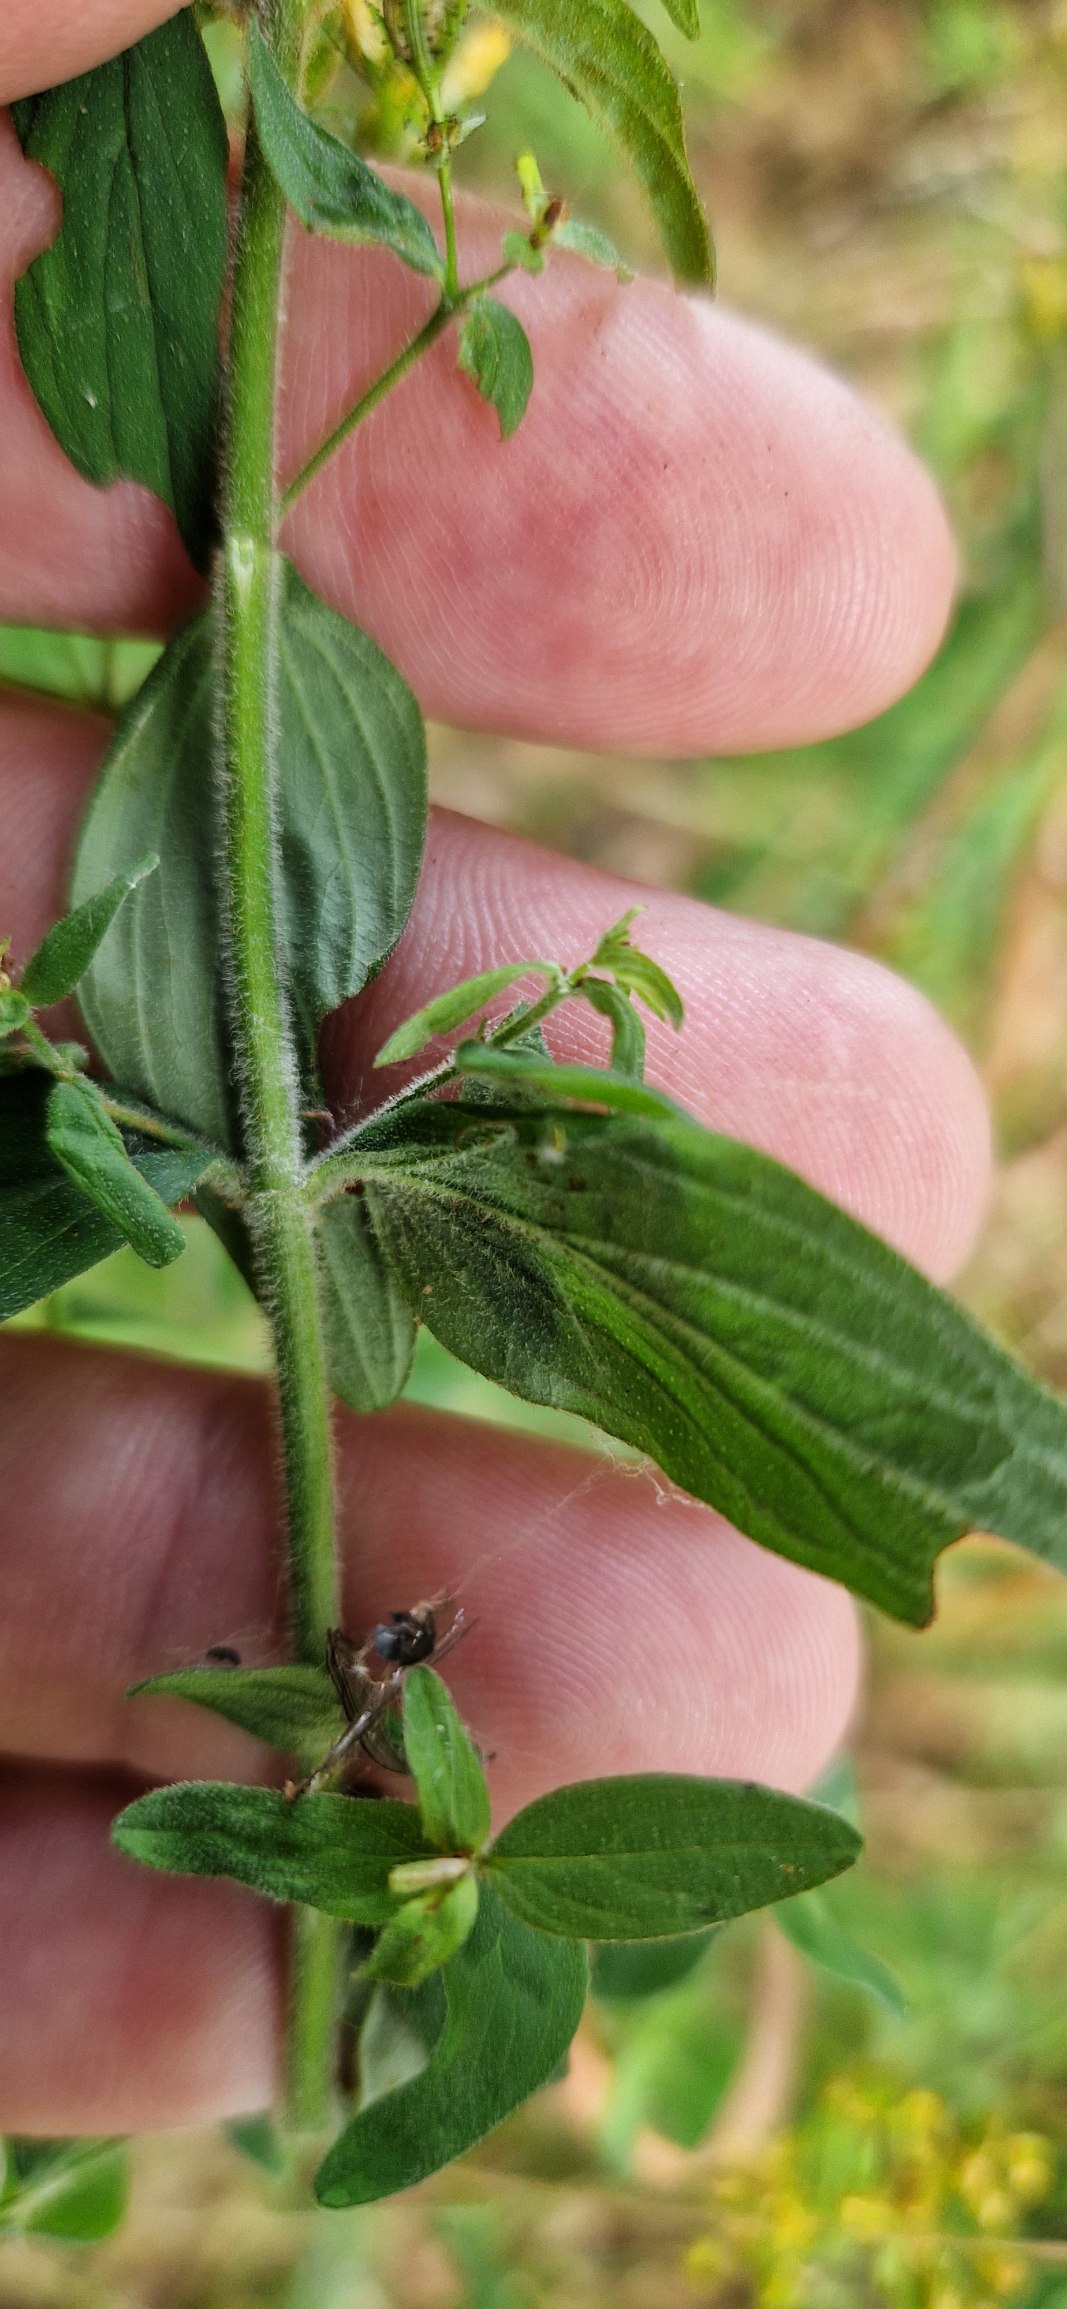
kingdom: Plantae
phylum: Tracheophyta
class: Magnoliopsida
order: Malpighiales
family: Hypericaceae
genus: Hypericum
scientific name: Hypericum hirsutum
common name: Lådden perikon
